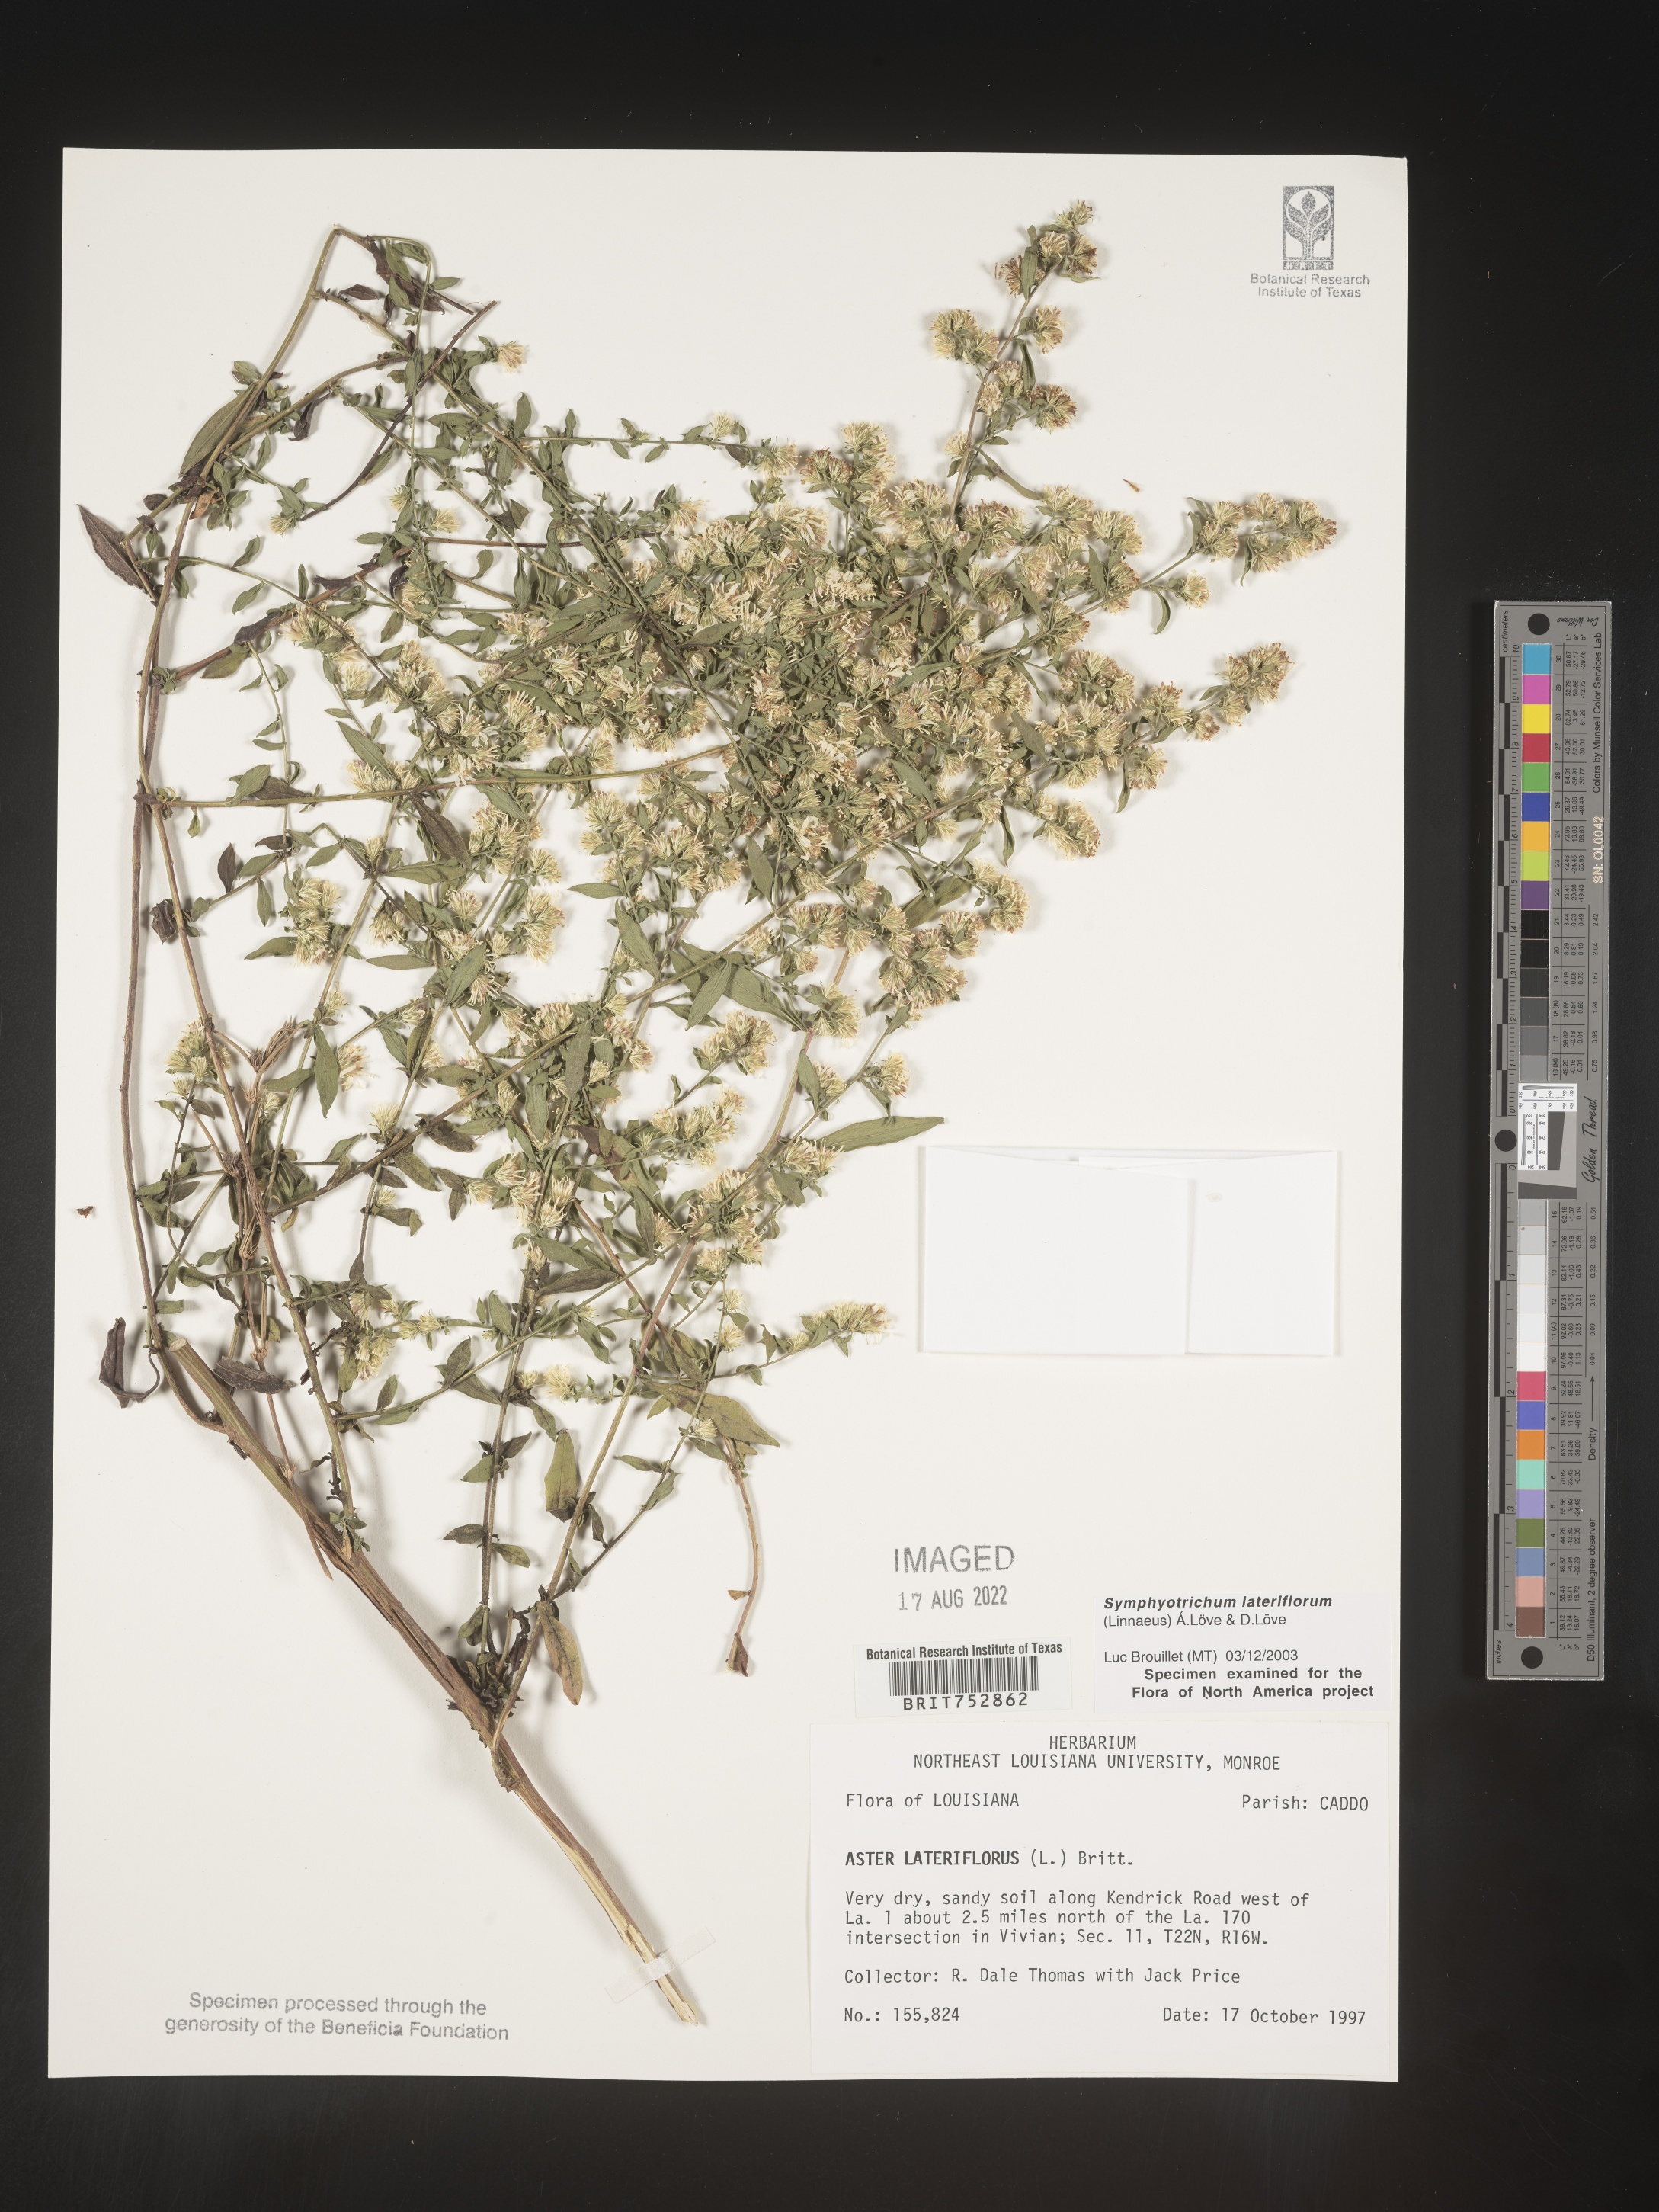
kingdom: Plantae
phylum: Tracheophyta
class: Magnoliopsida
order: Asterales
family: Asteraceae
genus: Symphyotrichum
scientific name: Symphyotrichum lateriflorum
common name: Calico aster
